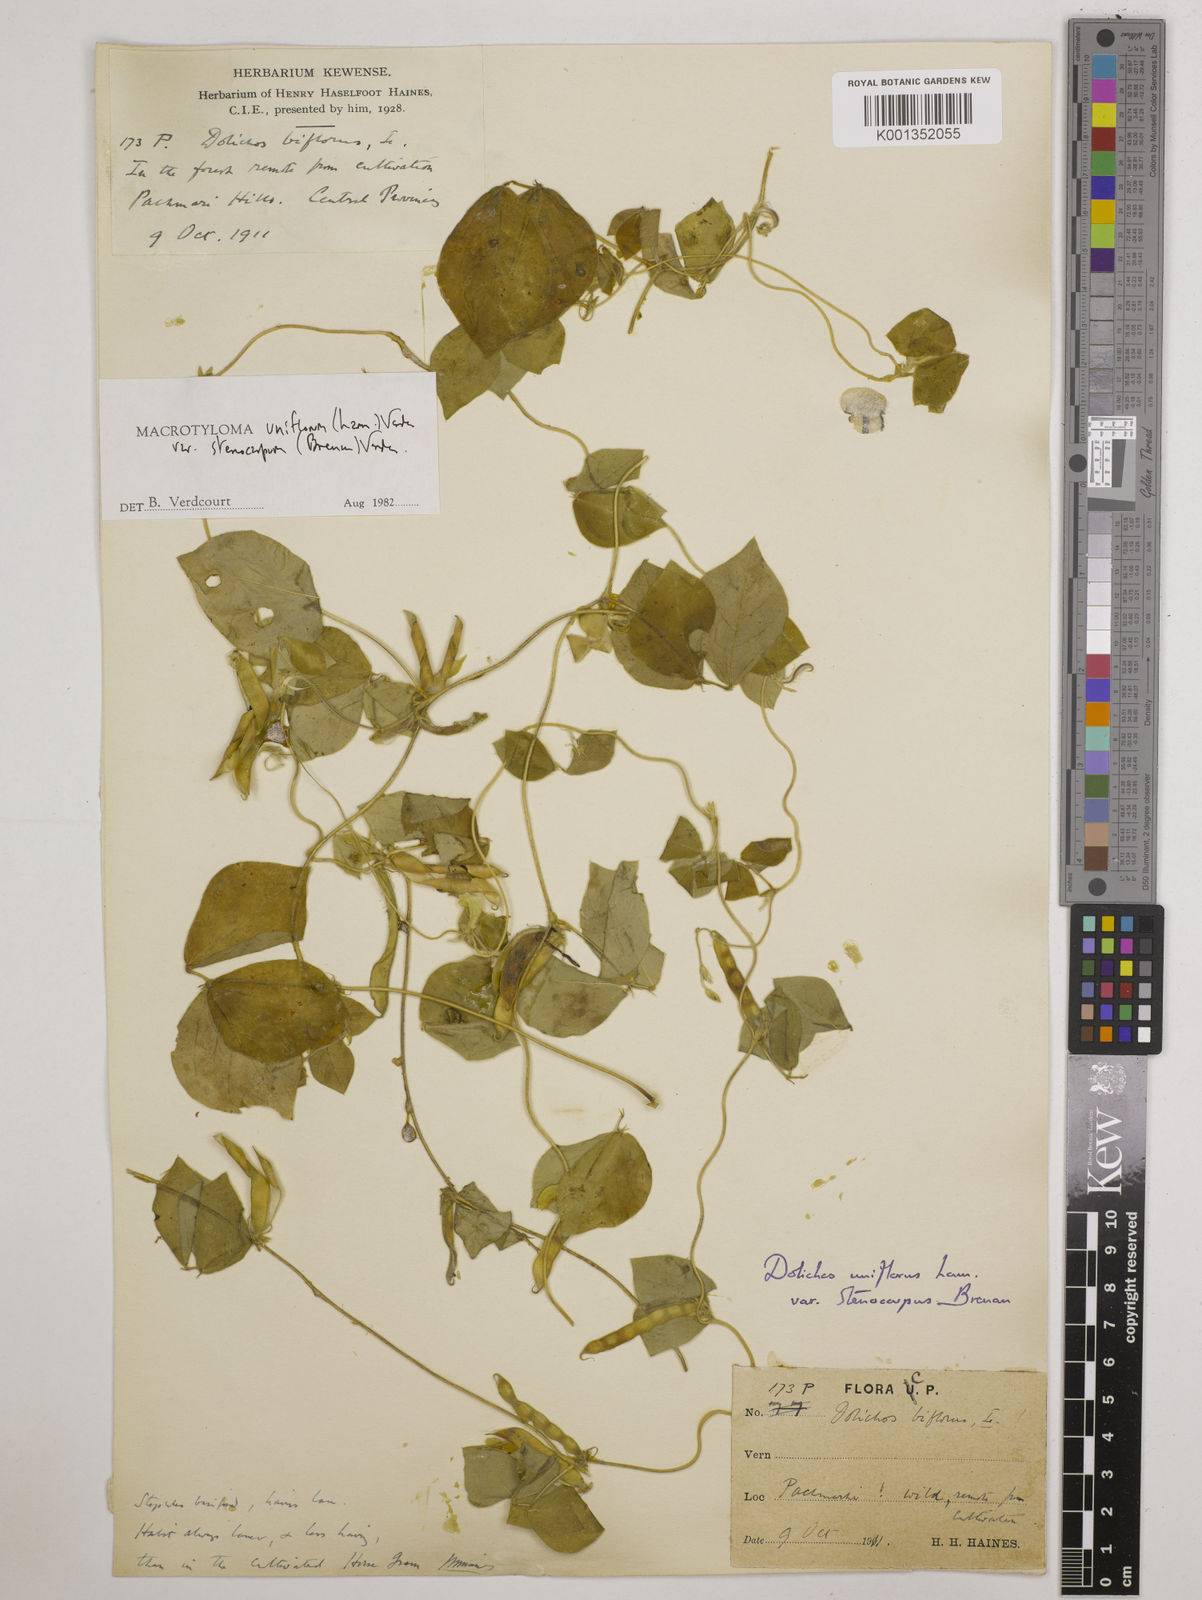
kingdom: Plantae
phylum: Tracheophyta
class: Magnoliopsida
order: Fabales
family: Fabaceae
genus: Macrotyloma
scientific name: Macrotyloma
